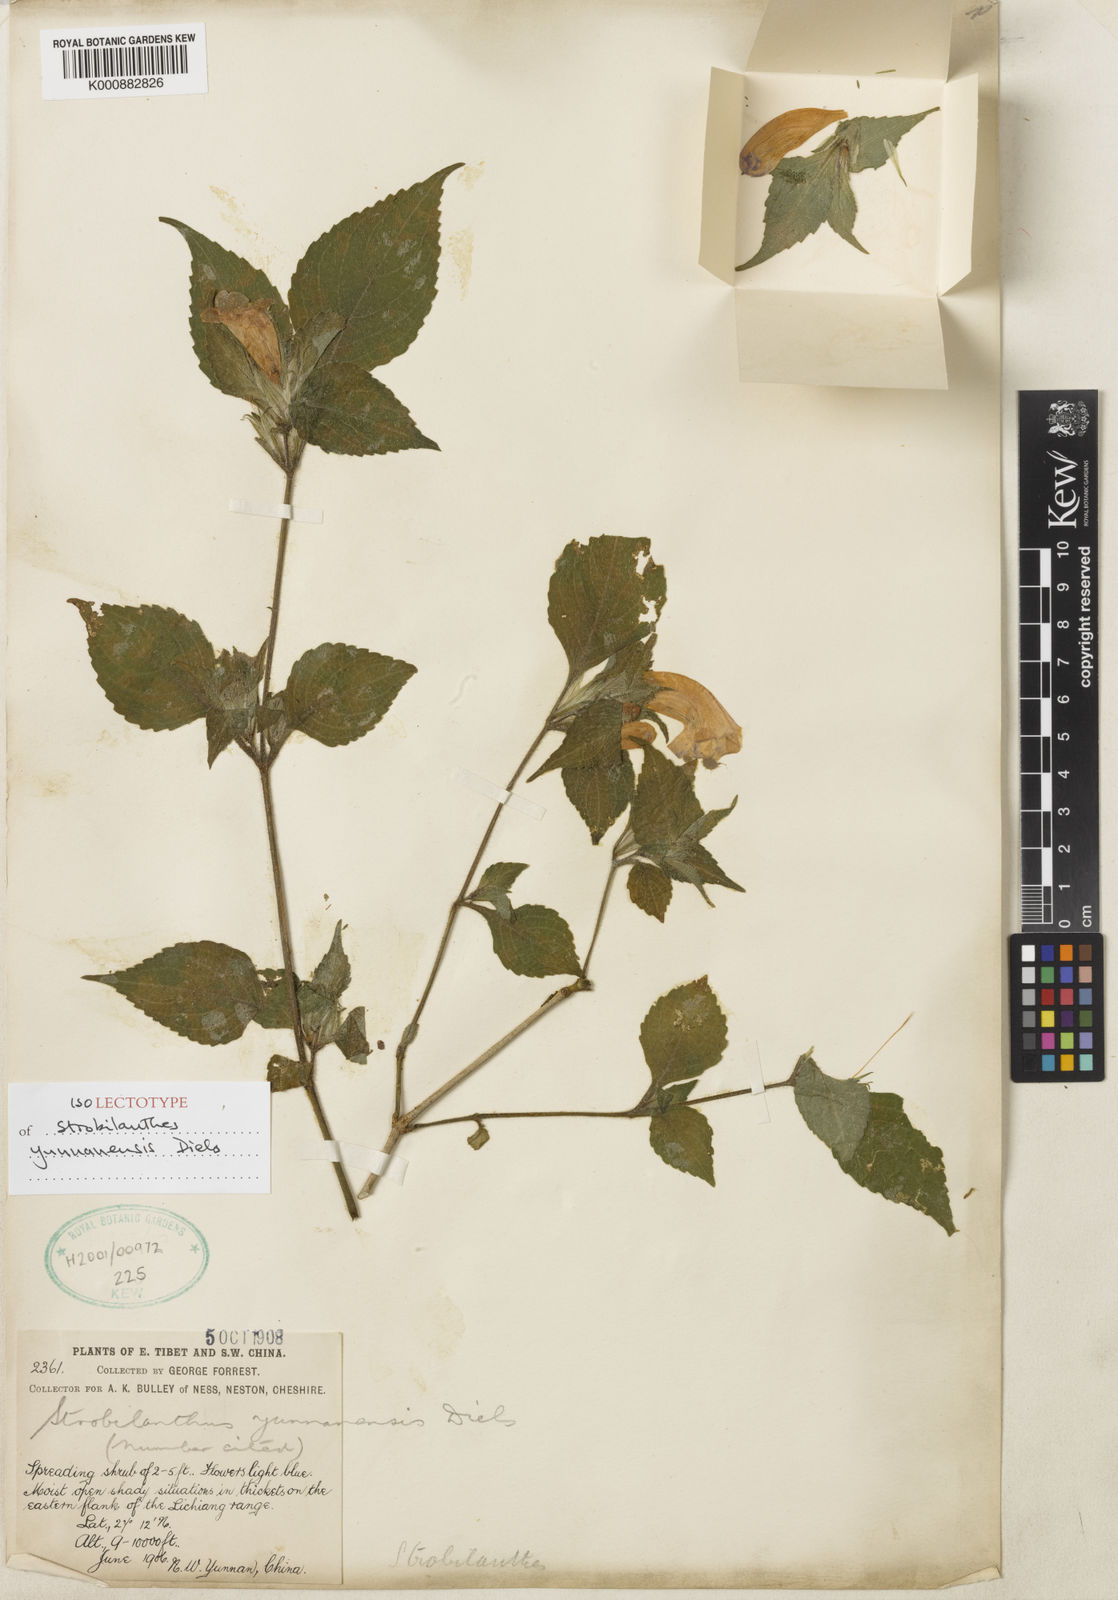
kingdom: Plantae
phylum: Tracheophyta
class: Magnoliopsida
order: Lamiales
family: Acanthaceae
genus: Strobilanthes
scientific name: Strobilanthes yunnanensis
